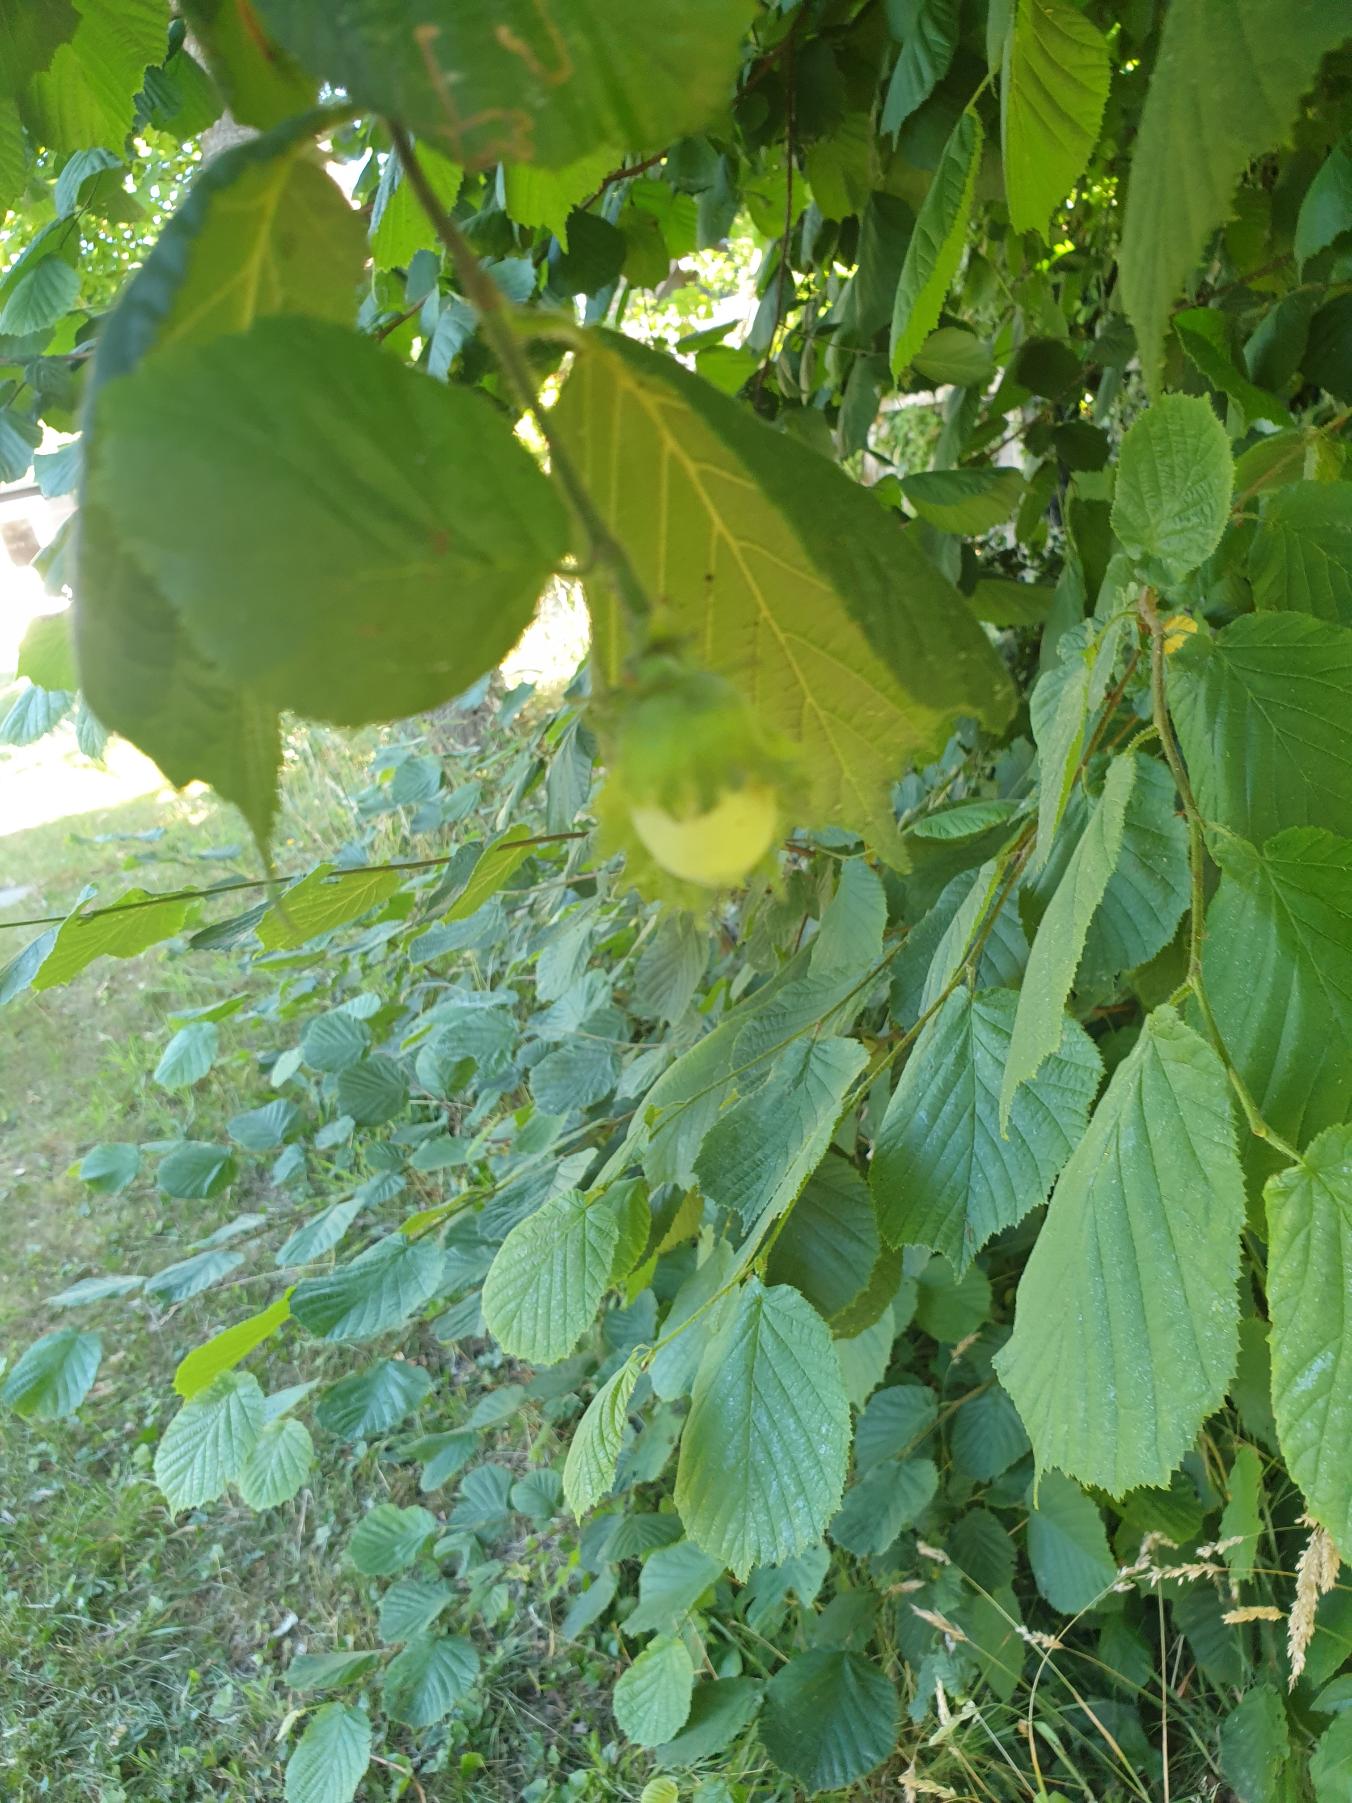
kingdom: Plantae
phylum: Tracheophyta
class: Magnoliopsida
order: Fagales
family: Betulaceae
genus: Corylus
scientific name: Corylus avellana
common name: Hassel
